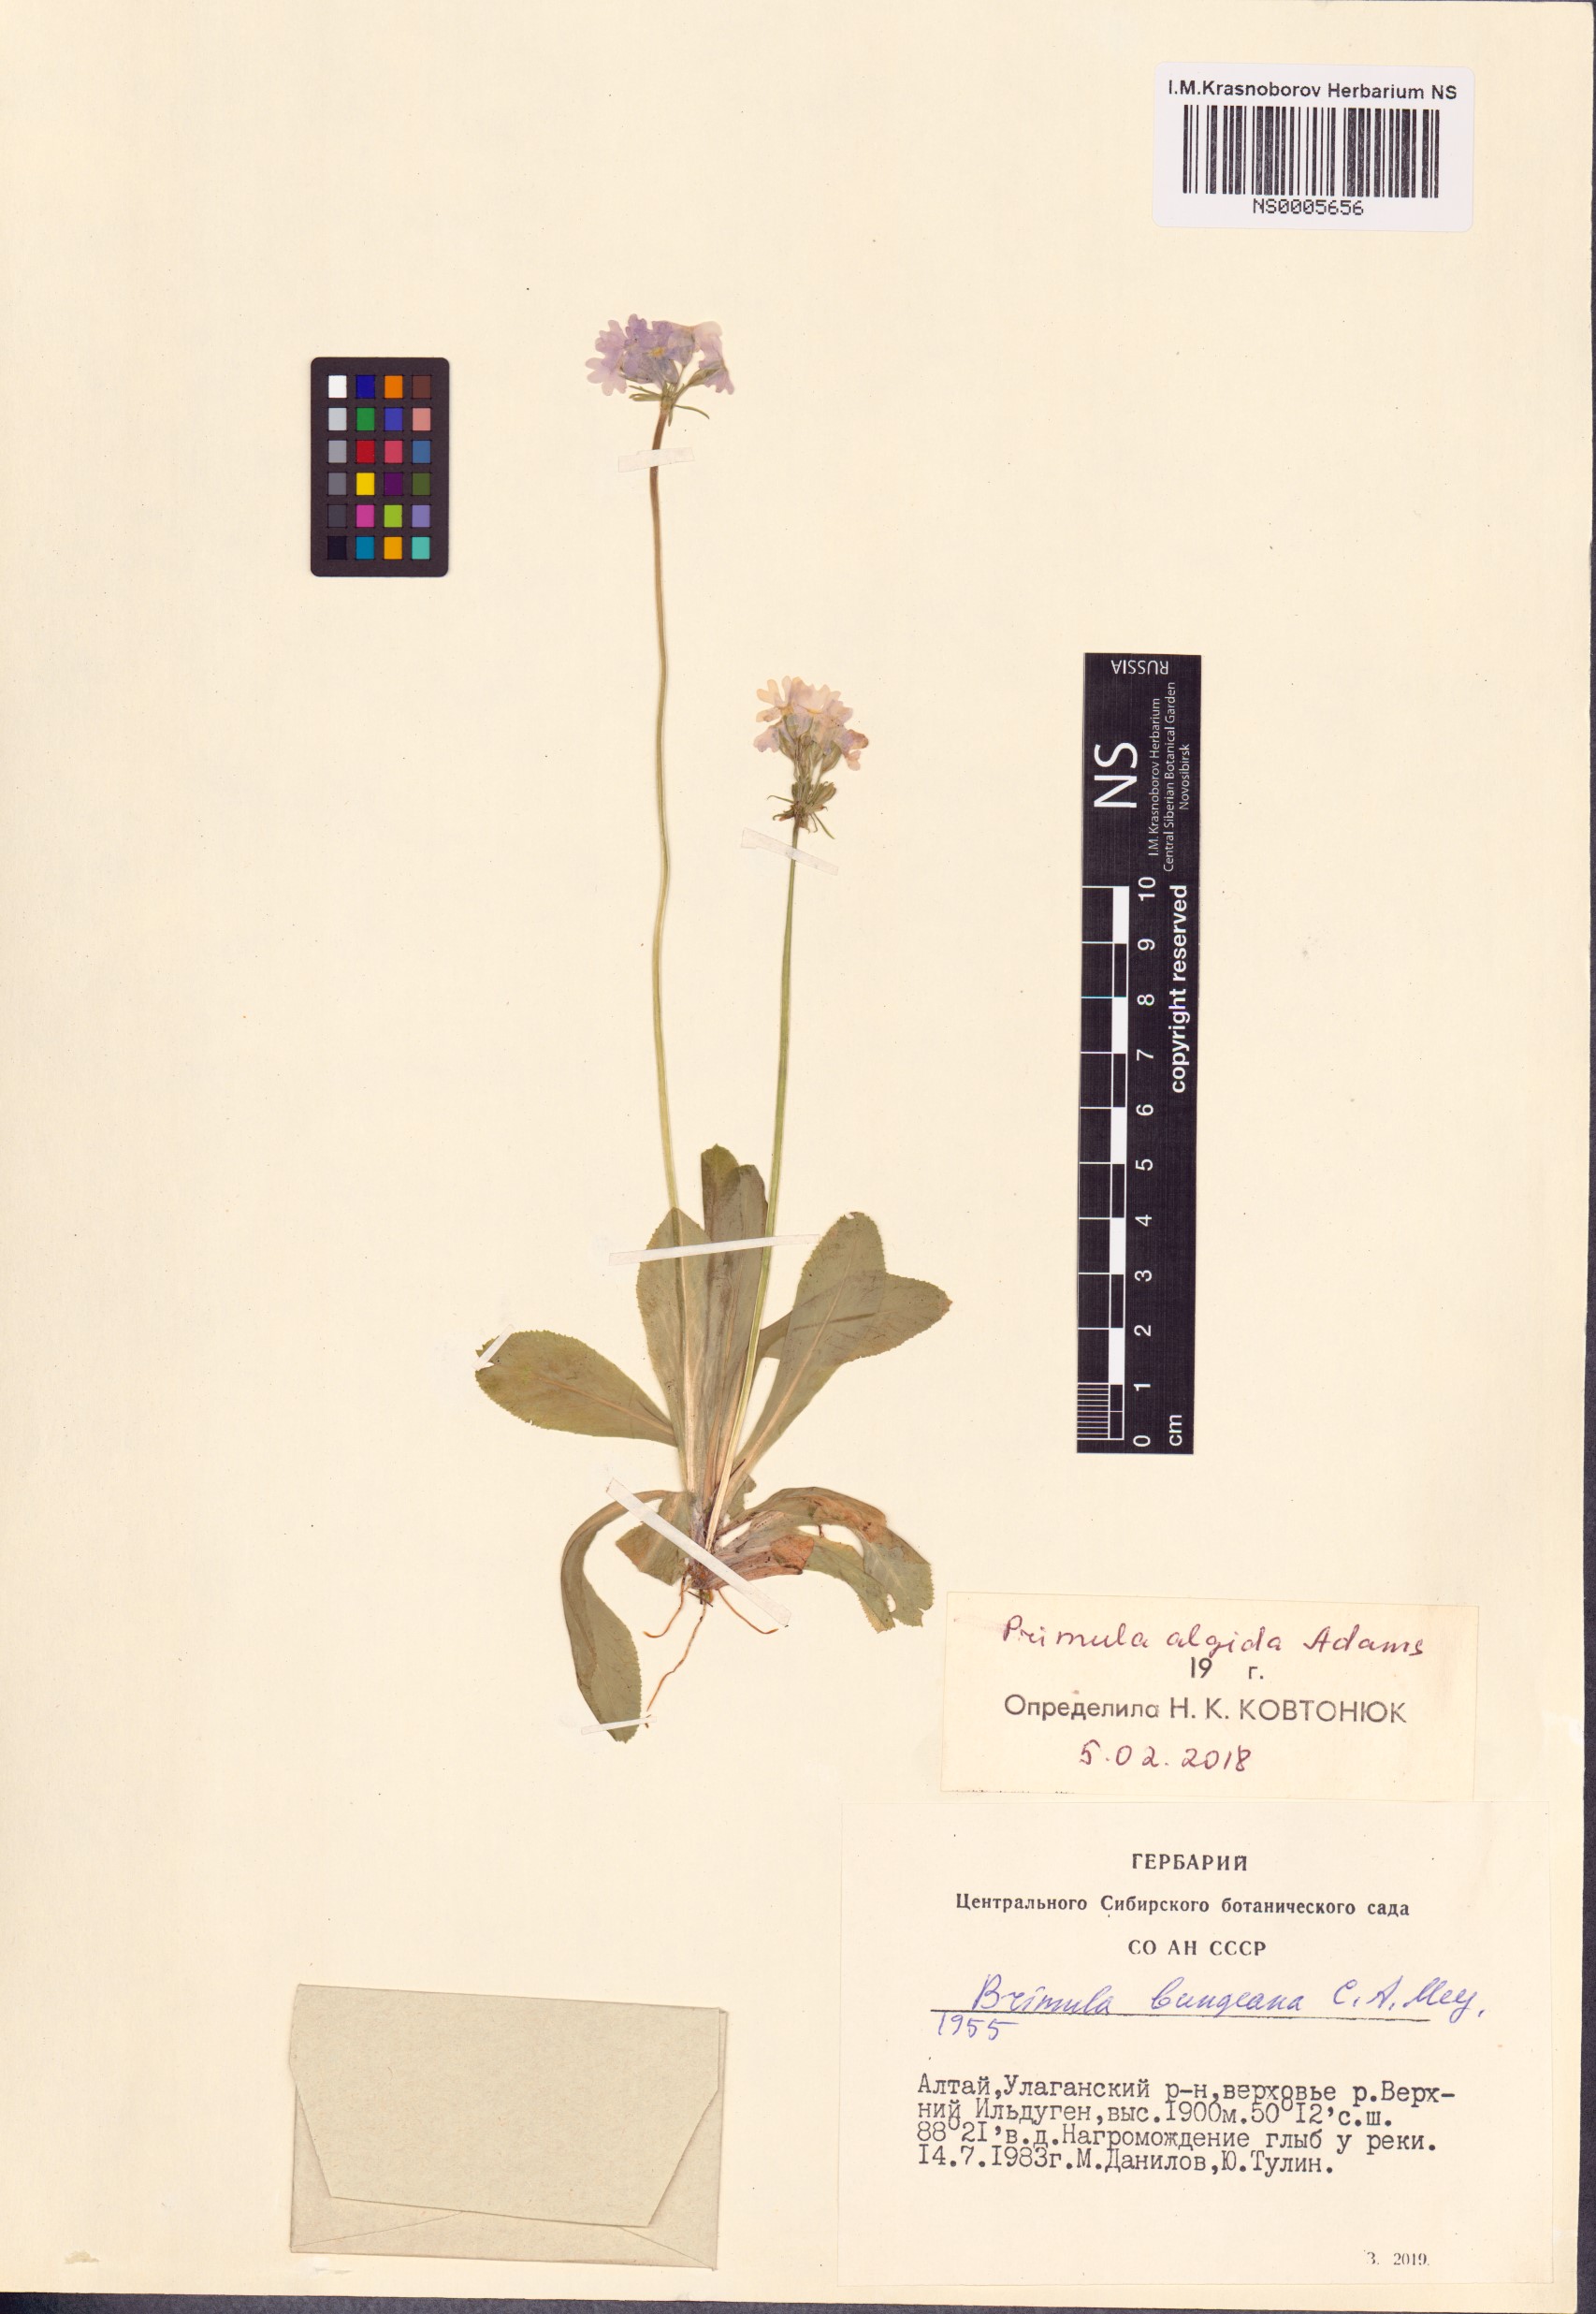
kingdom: Plantae
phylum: Tracheophyta
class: Magnoliopsida
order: Ericales
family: Primulaceae
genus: Primula
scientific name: Primula algida
